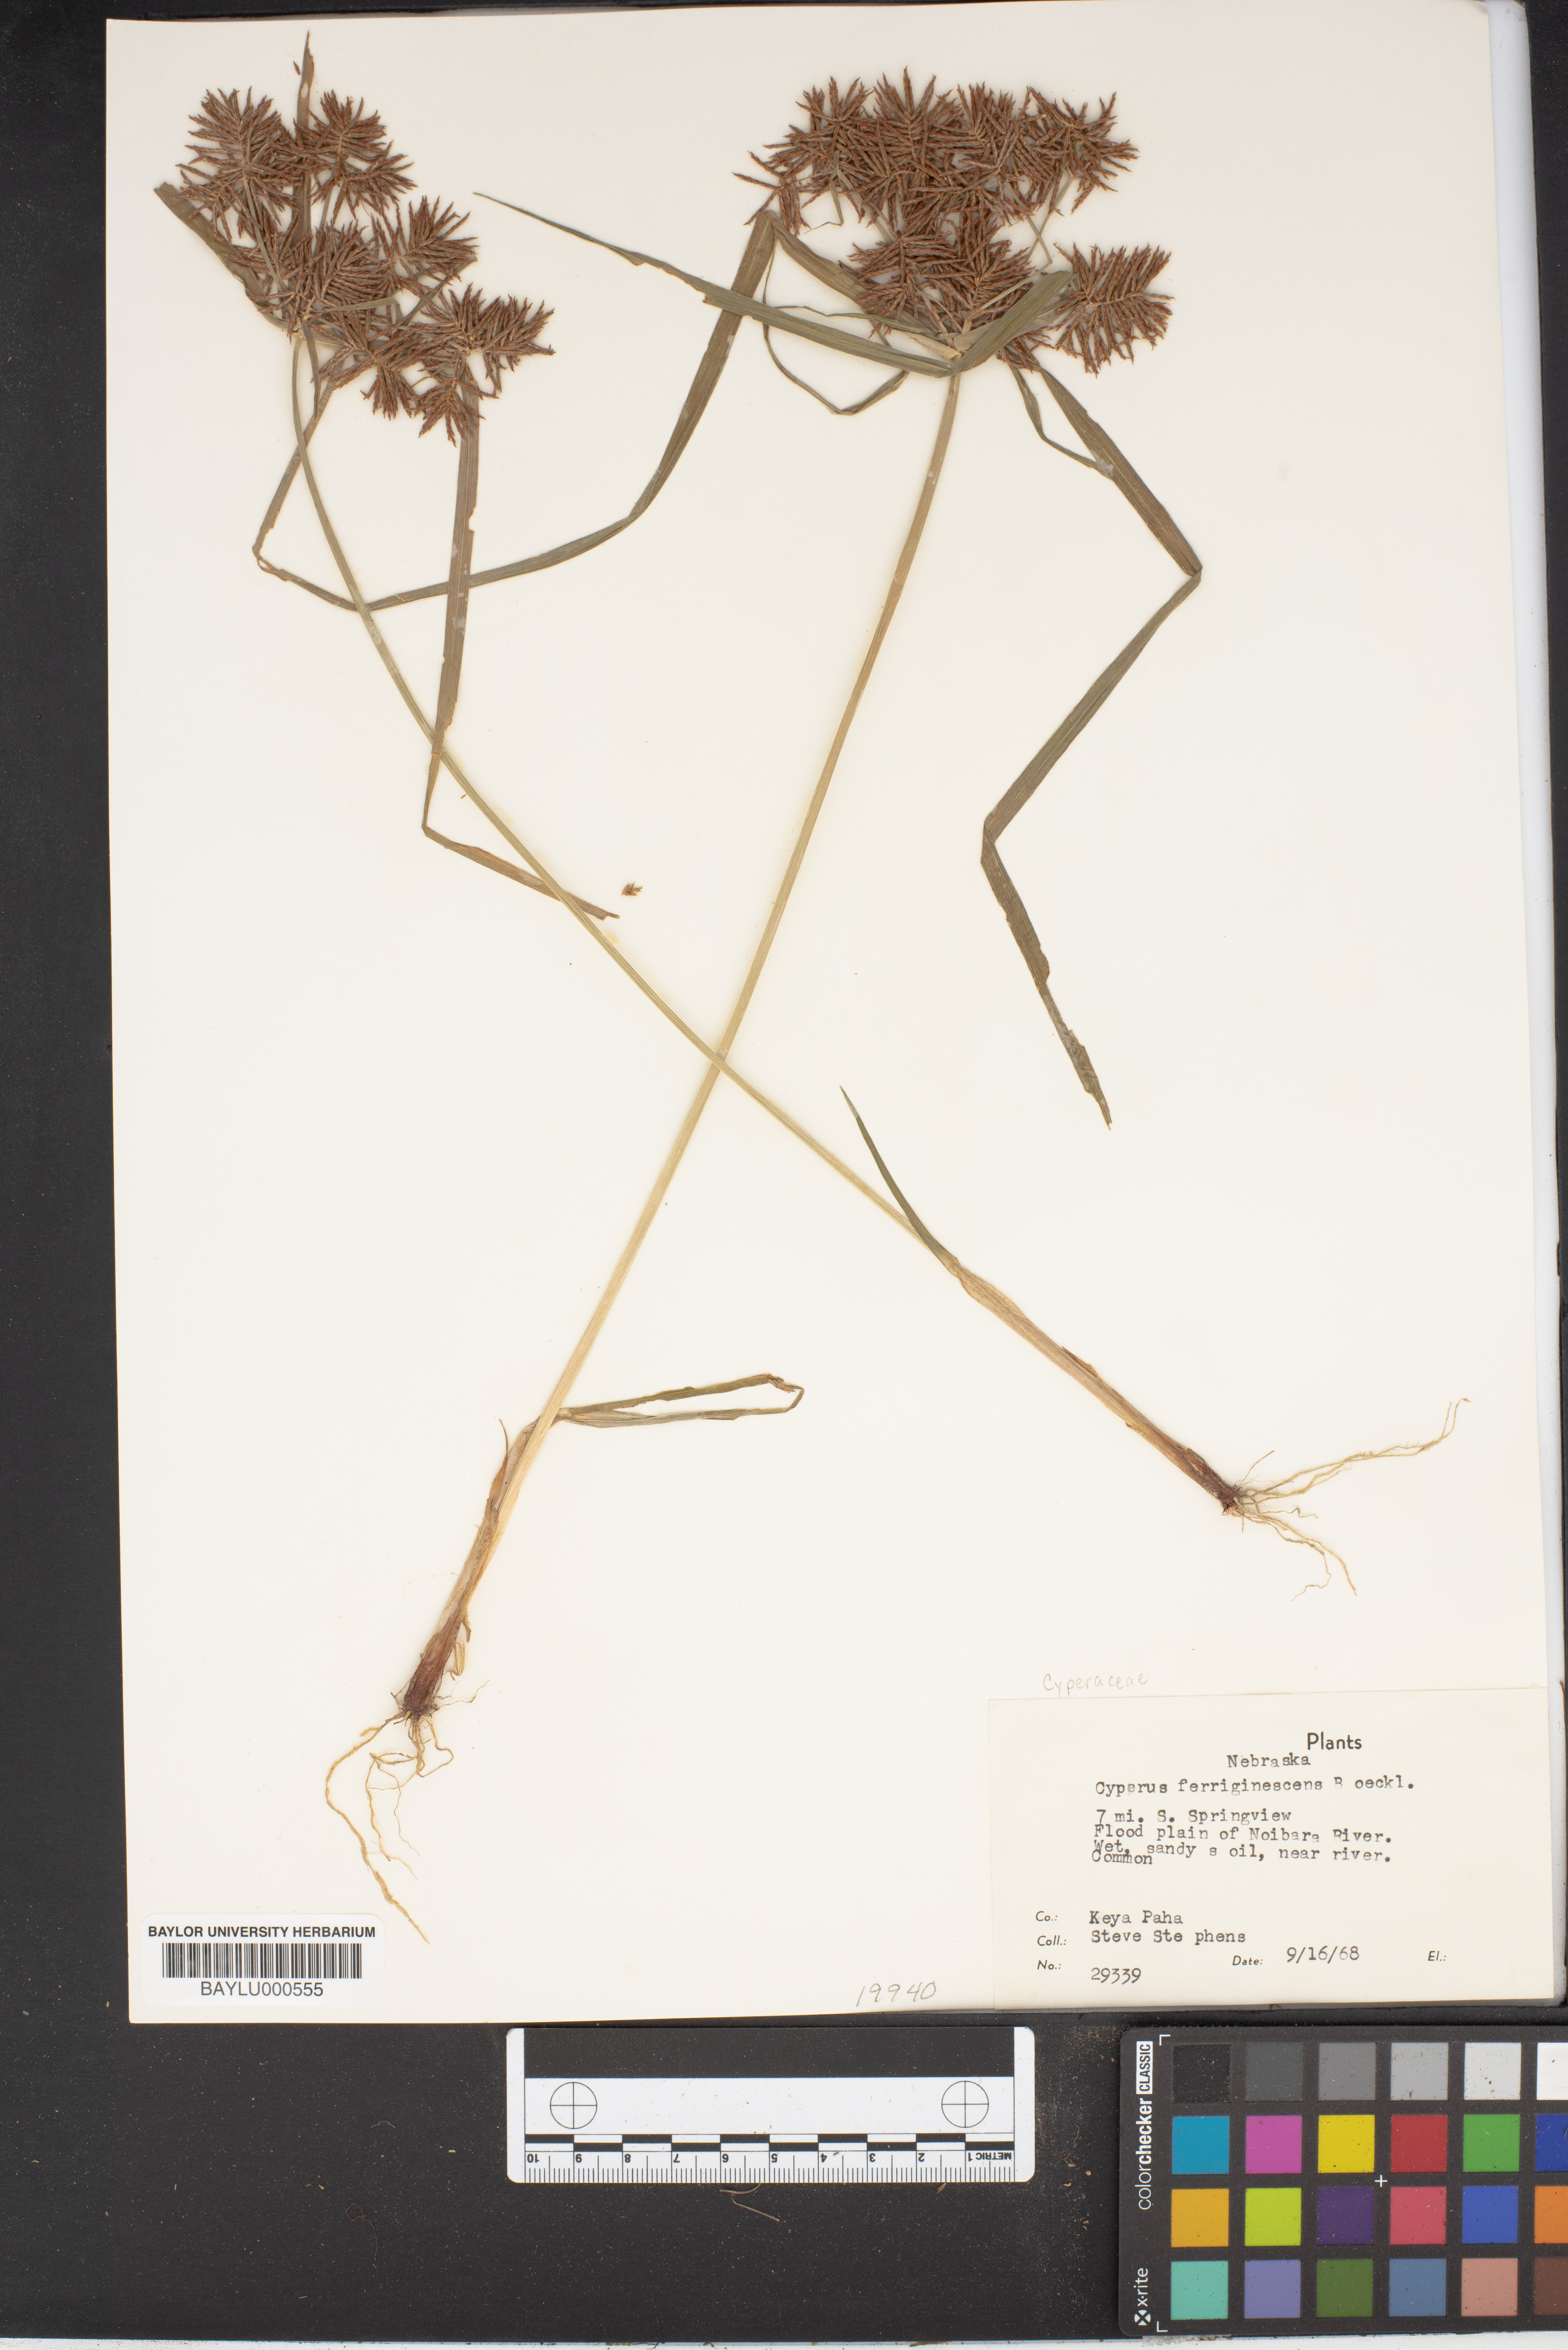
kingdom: Plantae
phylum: Tracheophyta
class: Liliopsida
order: Poales
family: Cyperaceae
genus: Cyperus
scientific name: Cyperus odoratus
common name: Fragrant flatsedge
